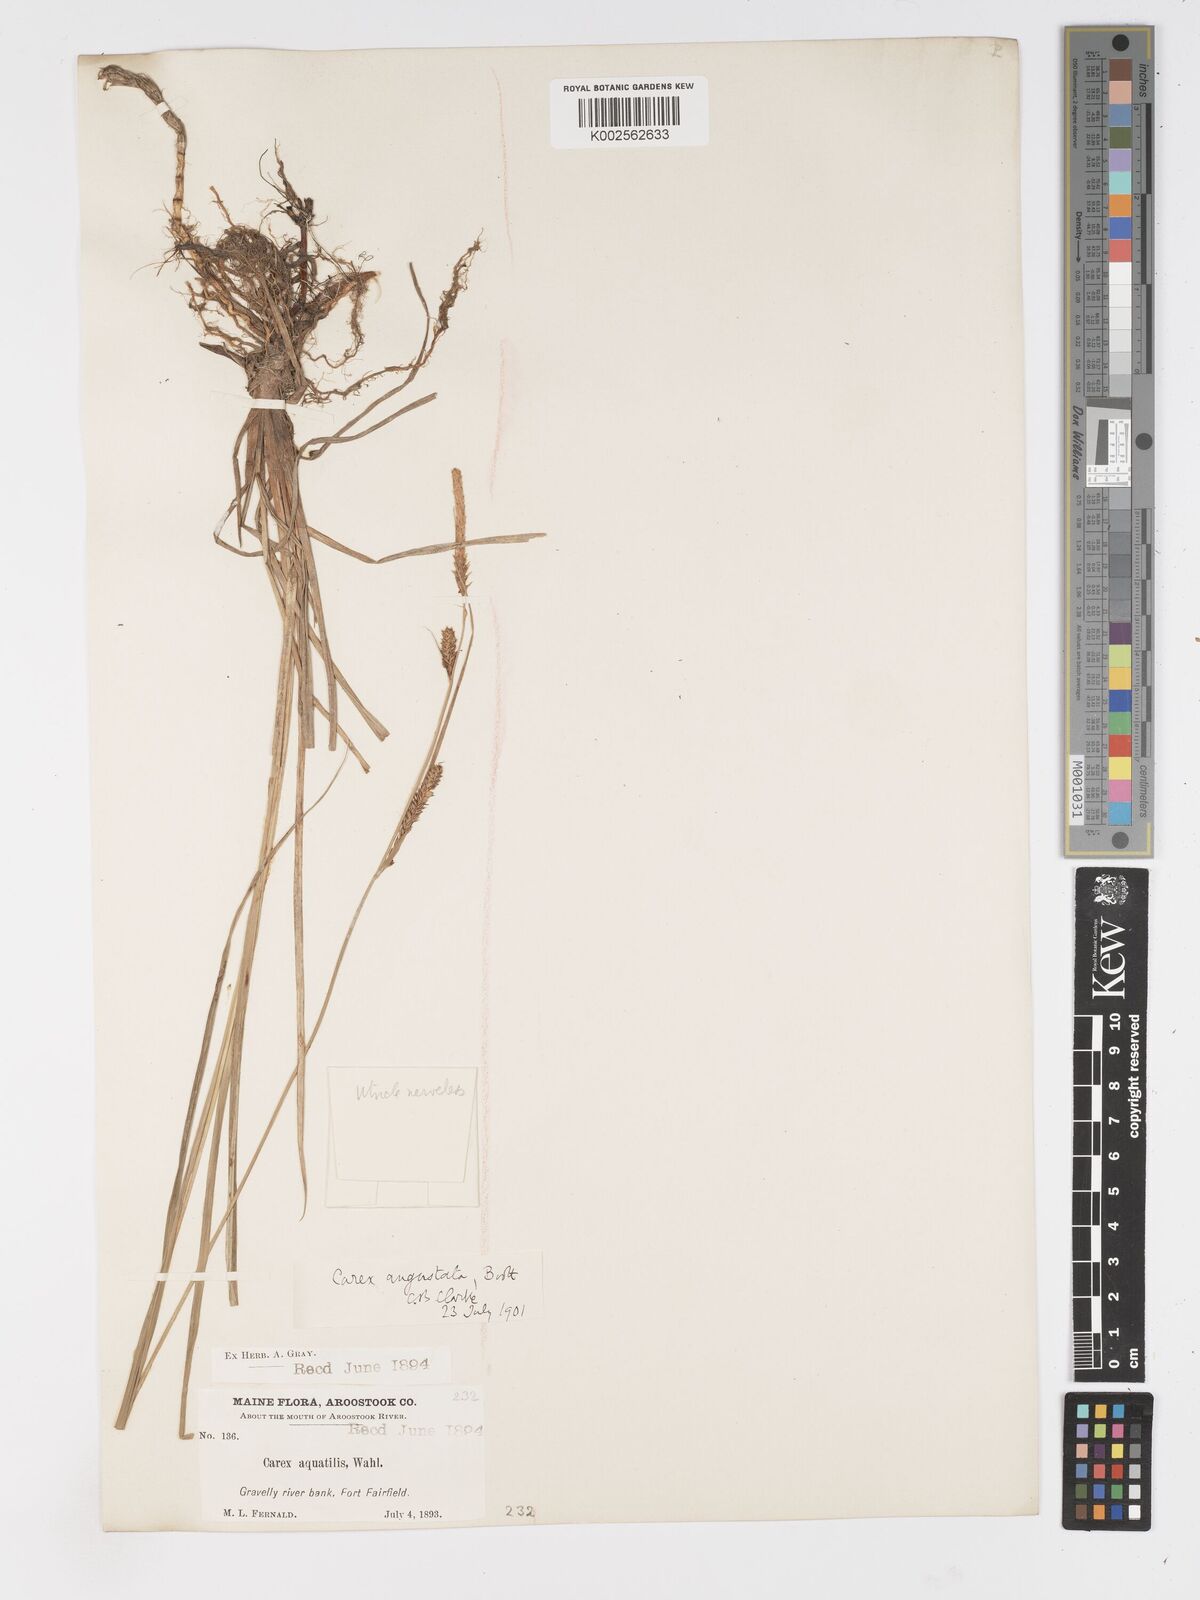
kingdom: Plantae
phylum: Tracheophyta
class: Liliopsida
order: Poales
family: Cyperaceae
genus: Carex
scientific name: Carex stricta
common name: Hummock sedge
